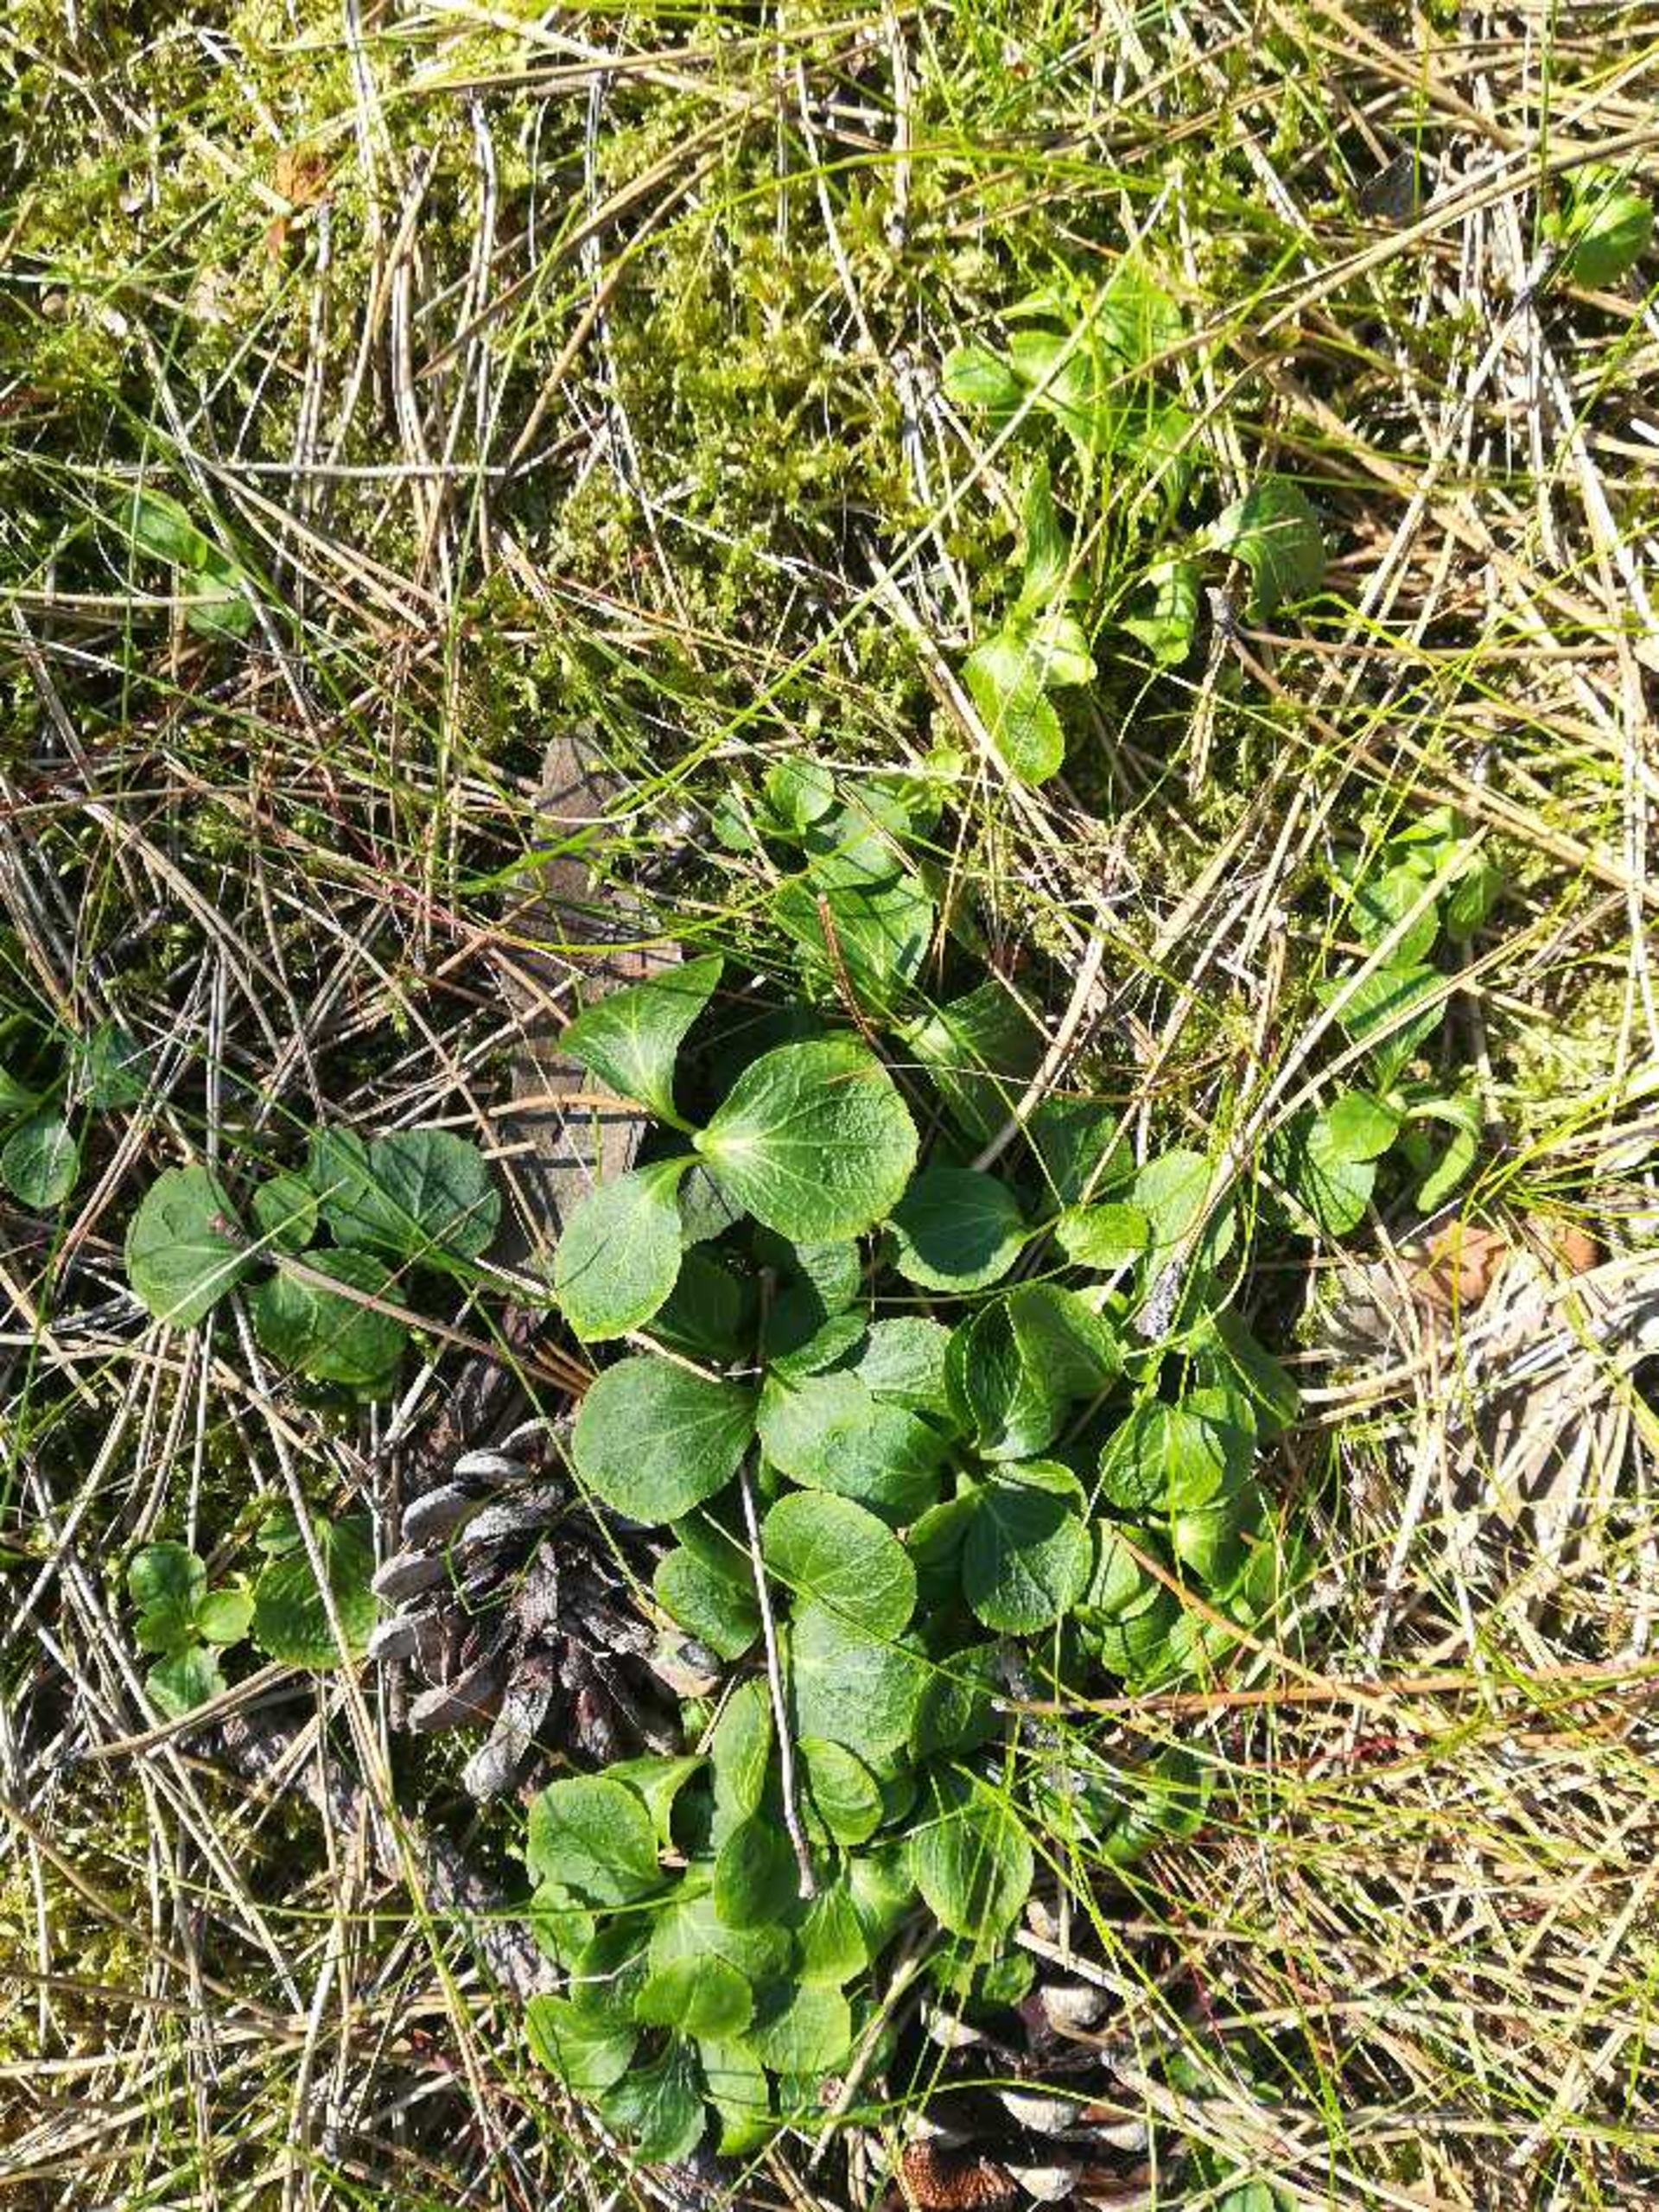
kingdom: Plantae
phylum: Tracheophyta
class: Magnoliopsida
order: Ericales
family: Ericaceae
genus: Moneses
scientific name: Moneses uniflora
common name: Enblomstret vintergrøn
